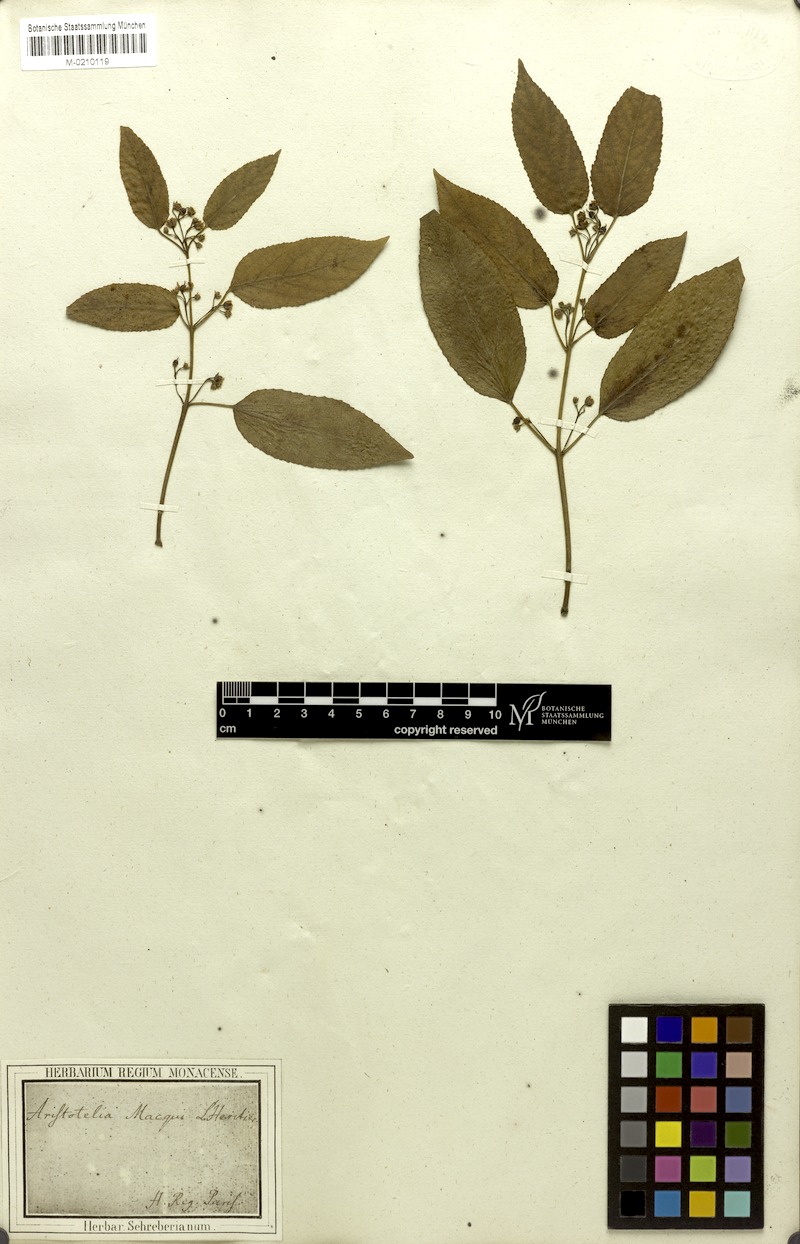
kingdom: Plantae
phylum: Tracheophyta
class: Magnoliopsida
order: Oxalidales
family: Elaeocarpaceae
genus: Aristotelia
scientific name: Aristotelia chilensis
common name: Maquei
